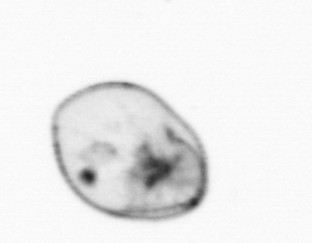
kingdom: Chromista
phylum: Myzozoa
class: Dinophyceae
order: Noctilucales
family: Noctilucaceae
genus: Noctiluca
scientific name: Noctiluca scintillans
